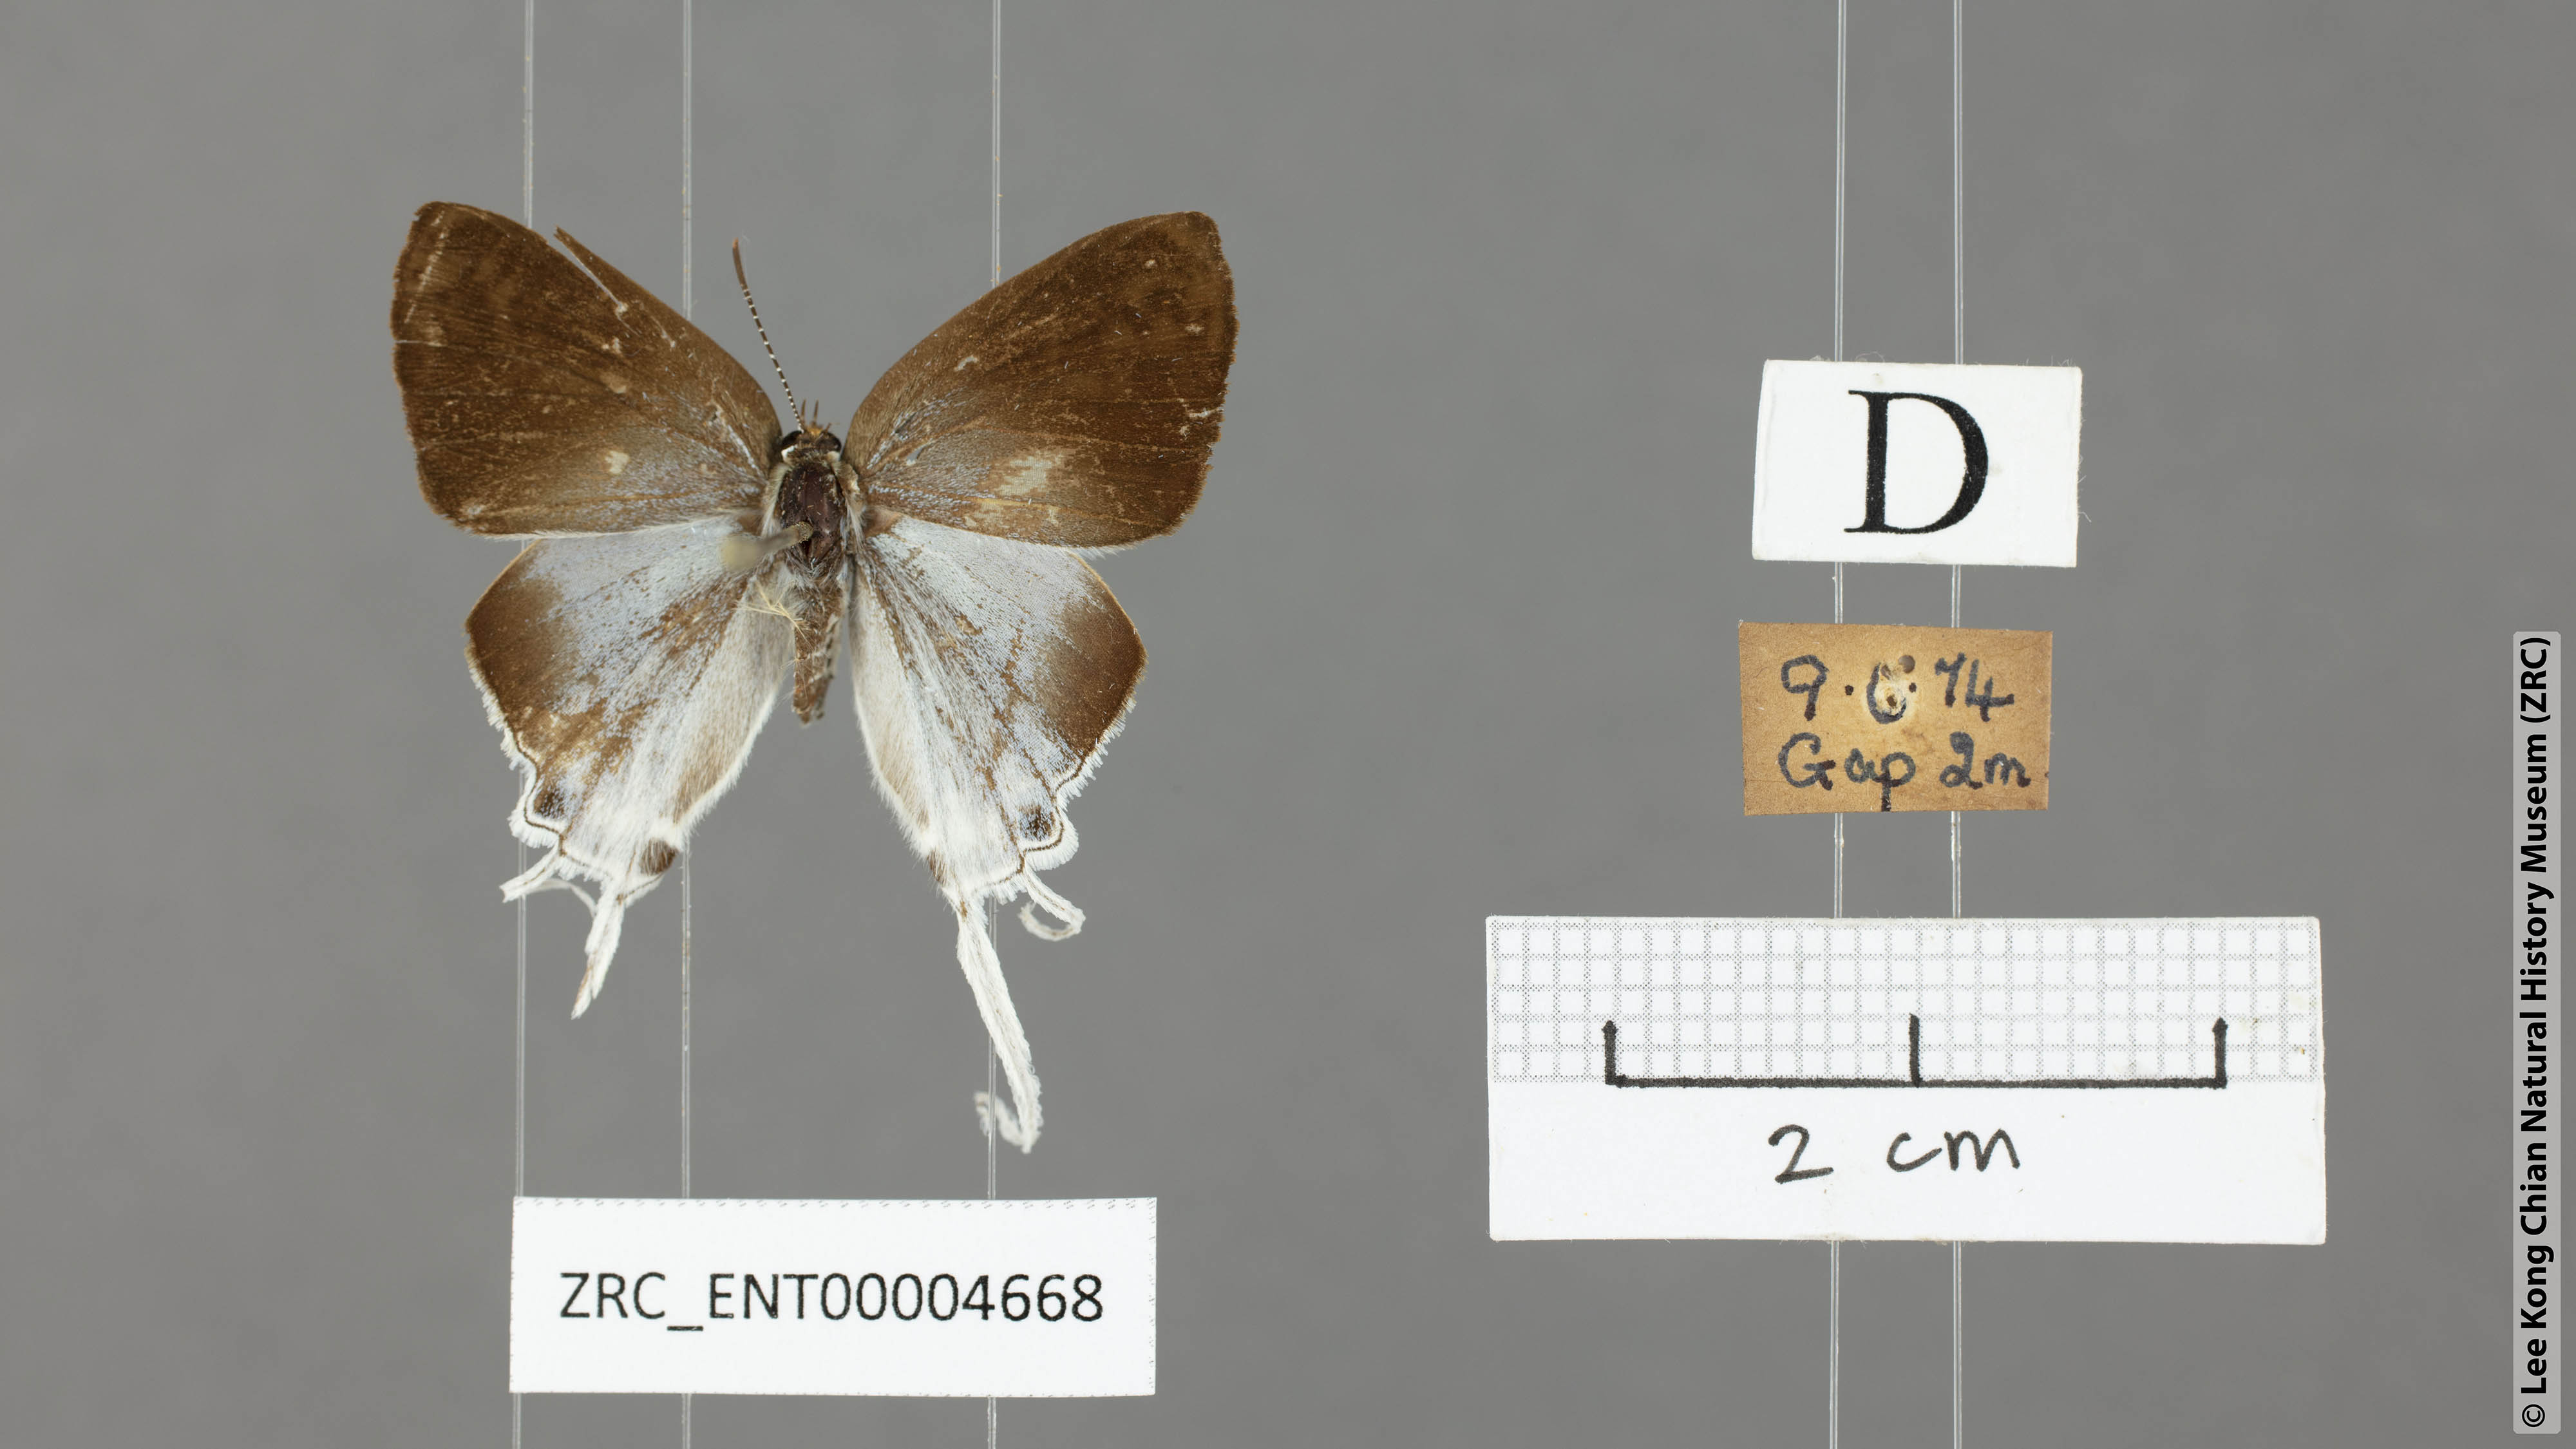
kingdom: Animalia
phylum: Arthropoda
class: Insecta
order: Lepidoptera
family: Lycaenidae
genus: Zeltus
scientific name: Zeltus amasa
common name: Fluffy tit
